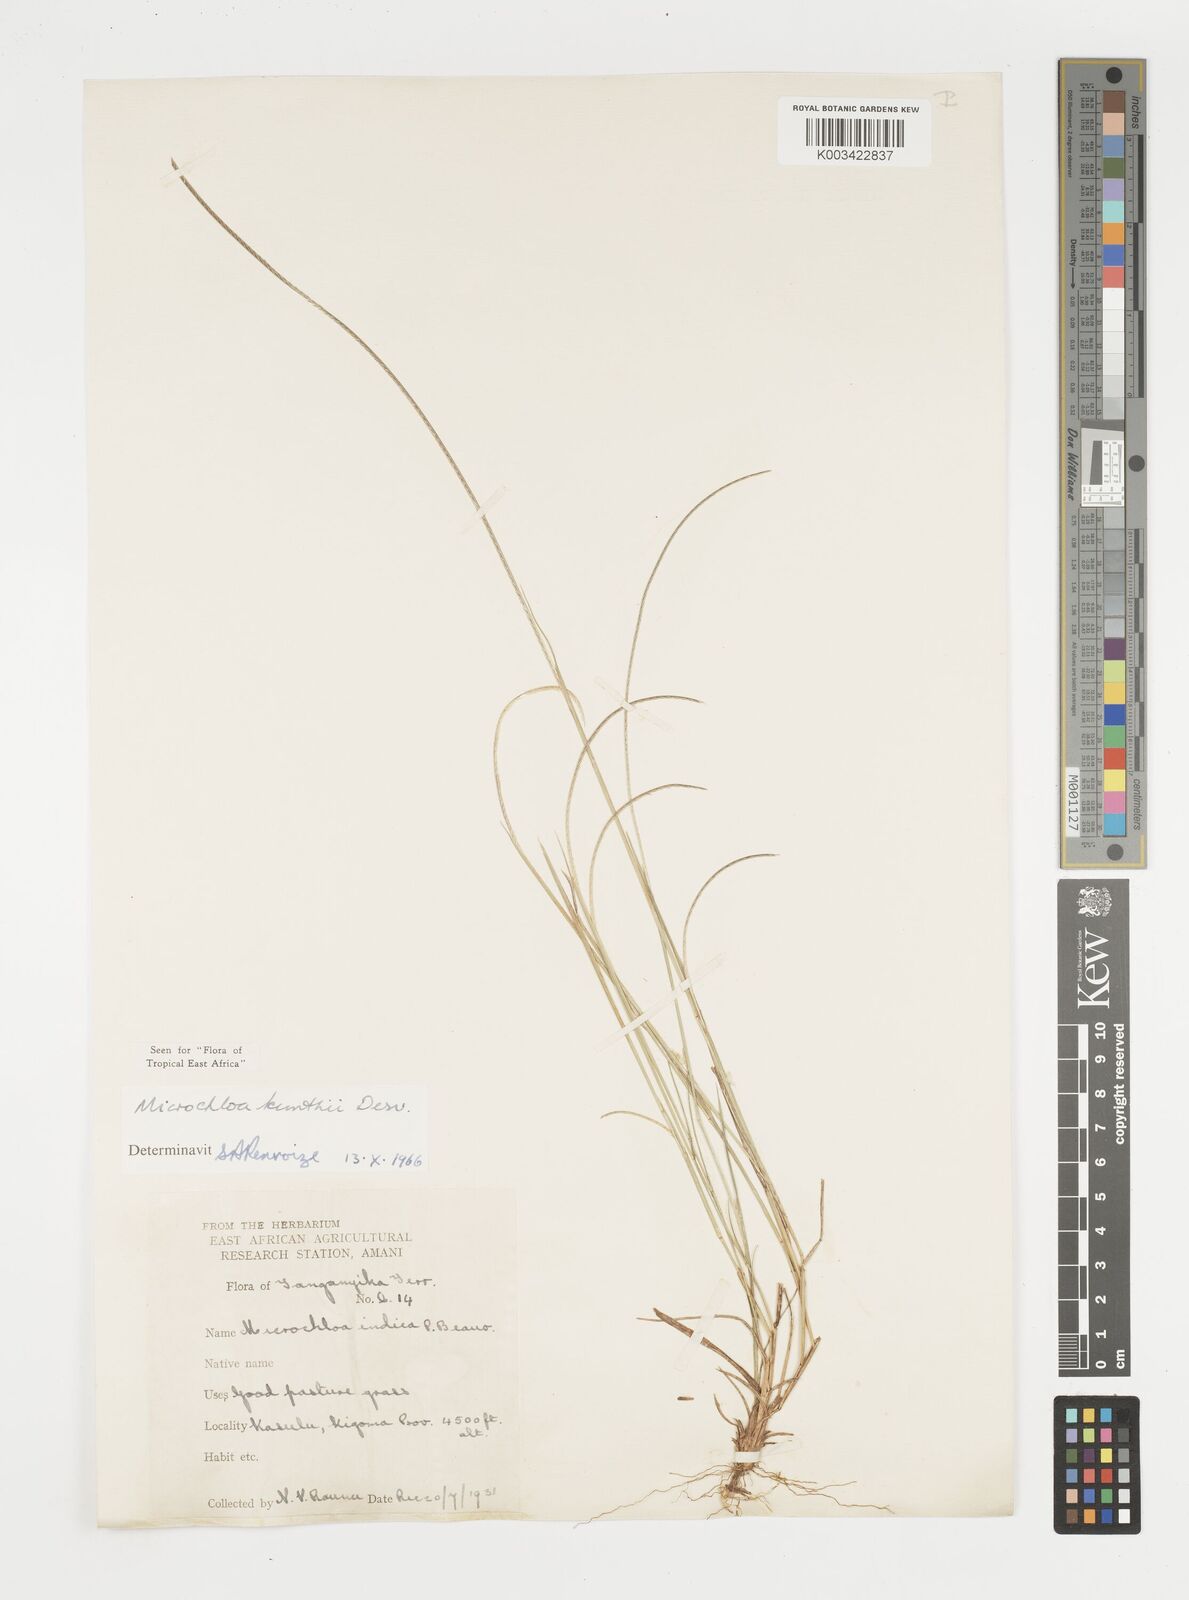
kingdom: Plantae
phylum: Tracheophyta
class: Liliopsida
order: Poales
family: Poaceae
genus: Microchloa
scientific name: Microchloa kunthii
